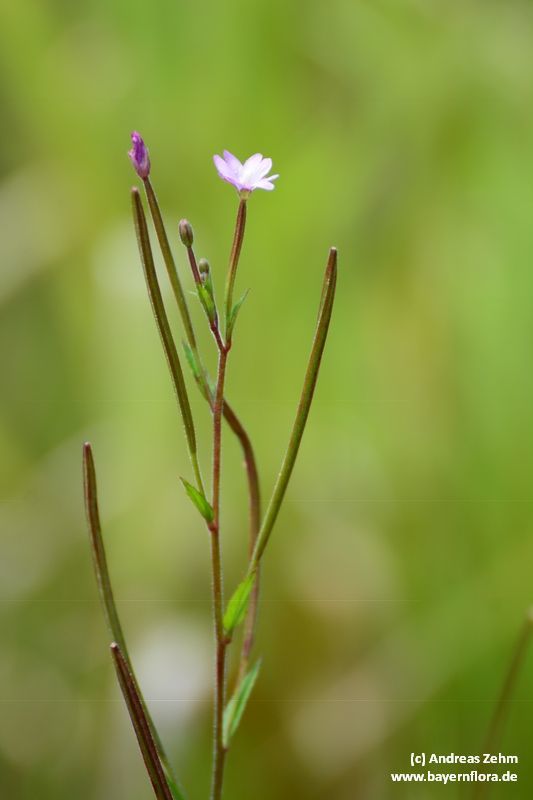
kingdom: Plantae
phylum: Tracheophyta
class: Magnoliopsida
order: Myrtales
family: Onagraceae
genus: Epilobium
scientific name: Epilobium parviflorum
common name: Hoary willowherb
